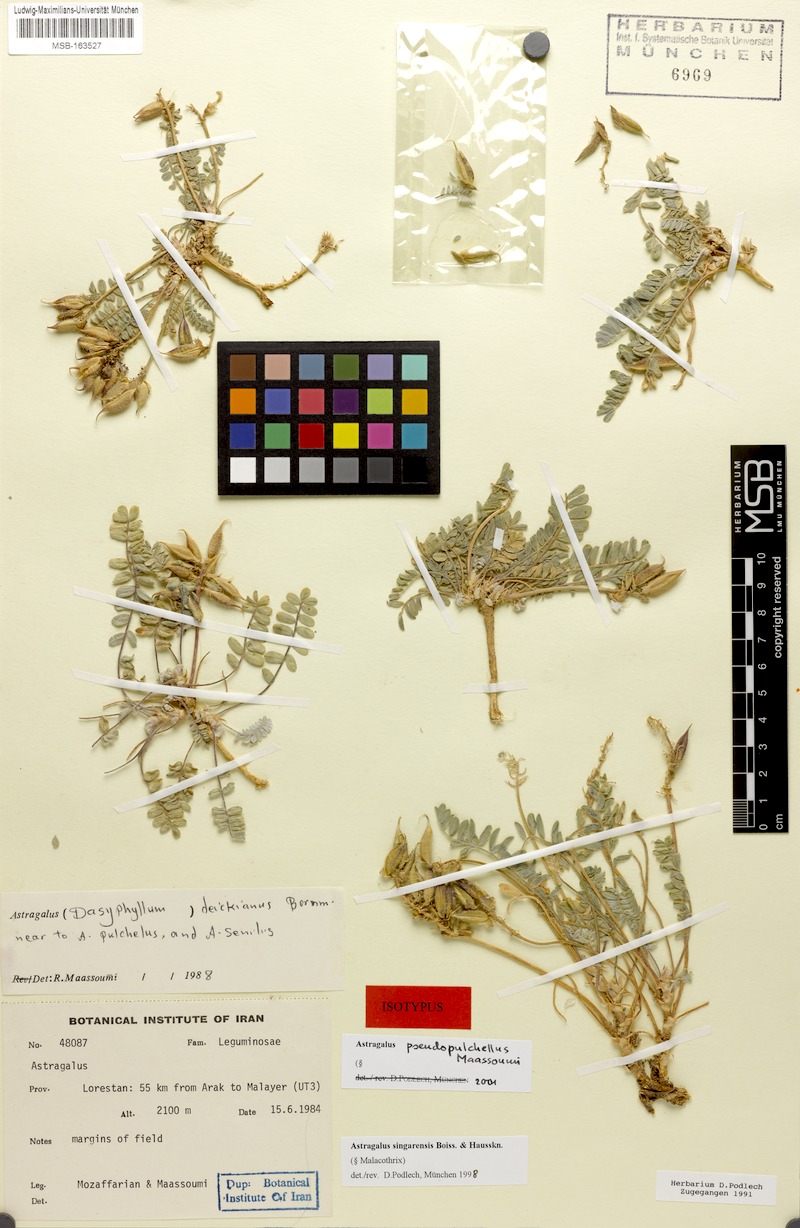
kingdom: Plantae
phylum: Tracheophyta
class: Magnoliopsida
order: Fabales
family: Fabaceae
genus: Astragalus
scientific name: Astragalus singarensis
